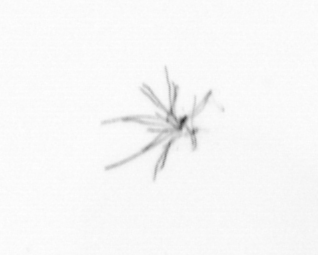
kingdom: Chromista
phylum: Ochrophyta
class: Bacillariophyceae
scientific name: Bacillariophyceae
